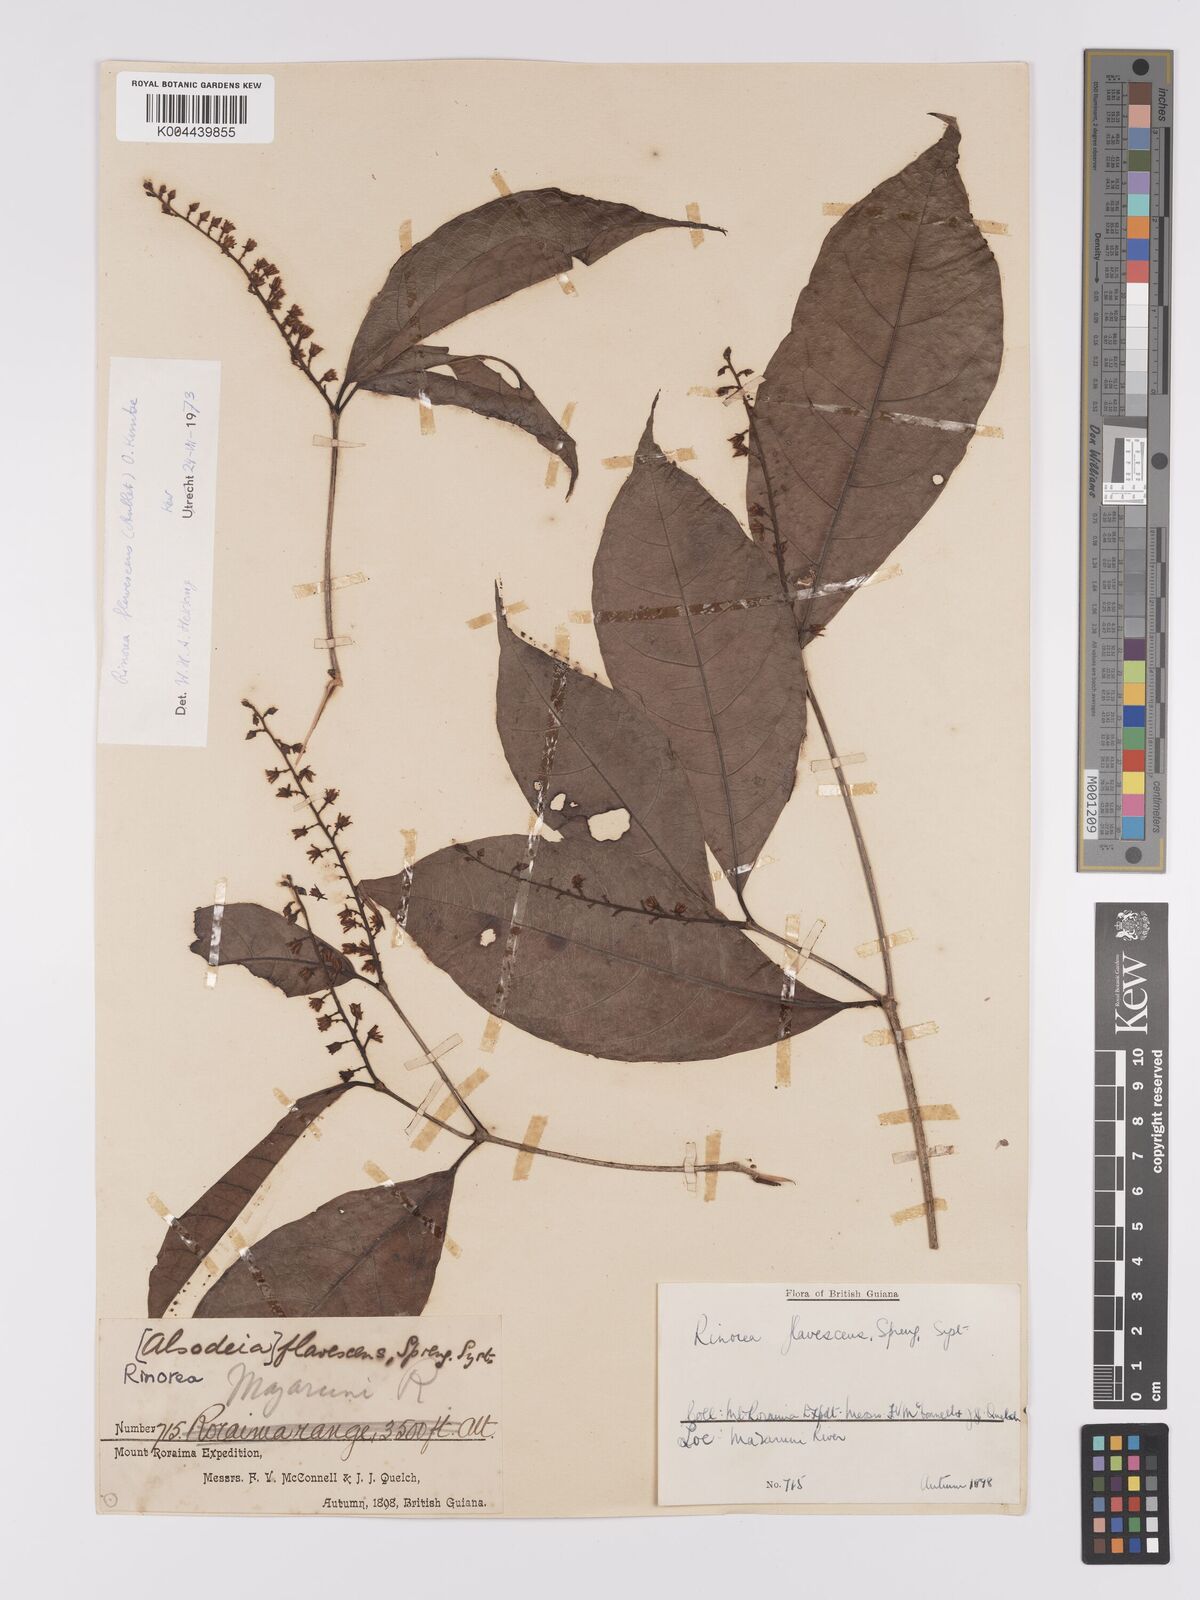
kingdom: Plantae
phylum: Tracheophyta
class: Magnoliopsida
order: Malpighiales
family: Violaceae
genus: Rinorea
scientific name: Rinorea flavescens
